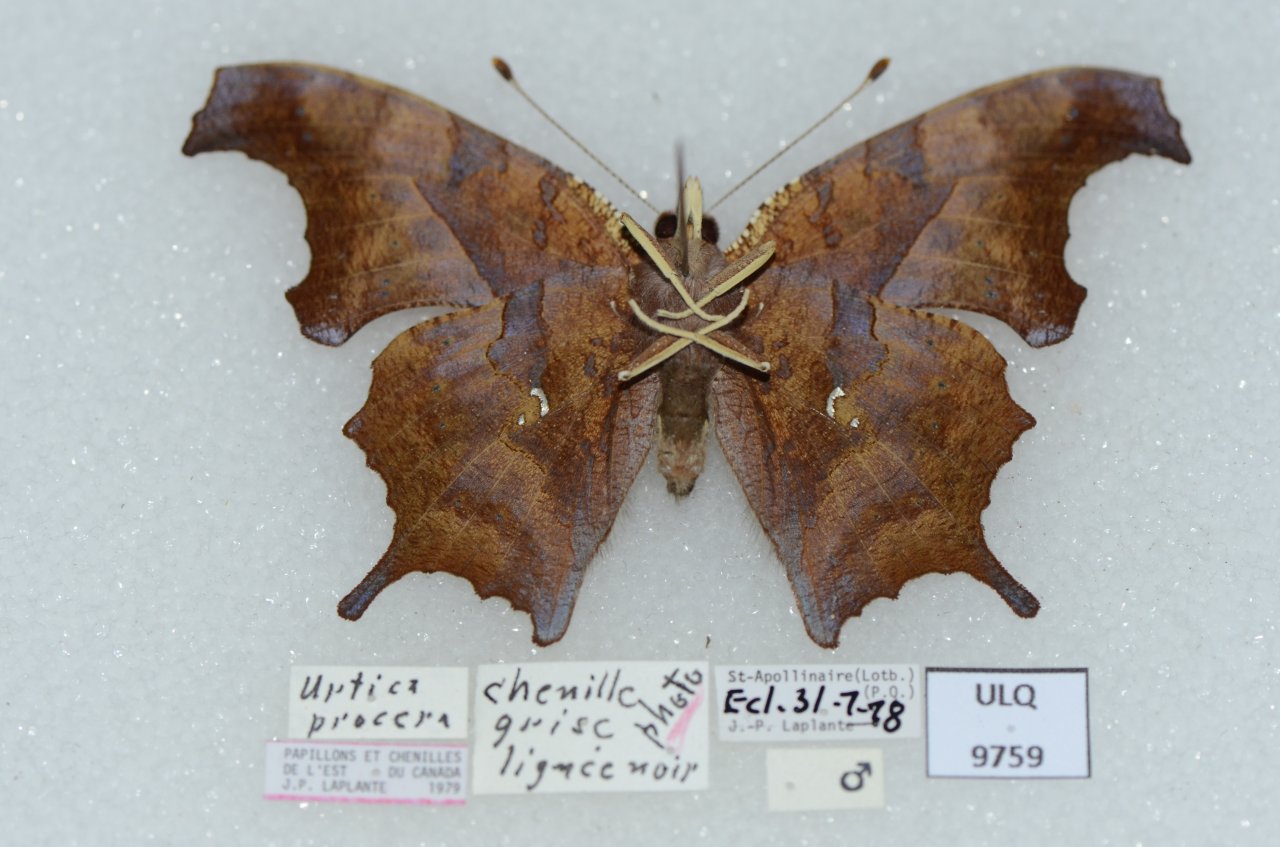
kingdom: Animalia
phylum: Arthropoda
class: Insecta
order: Lepidoptera
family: Nymphalidae
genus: Polygonia
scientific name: Polygonia interrogationis
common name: Question Mark
